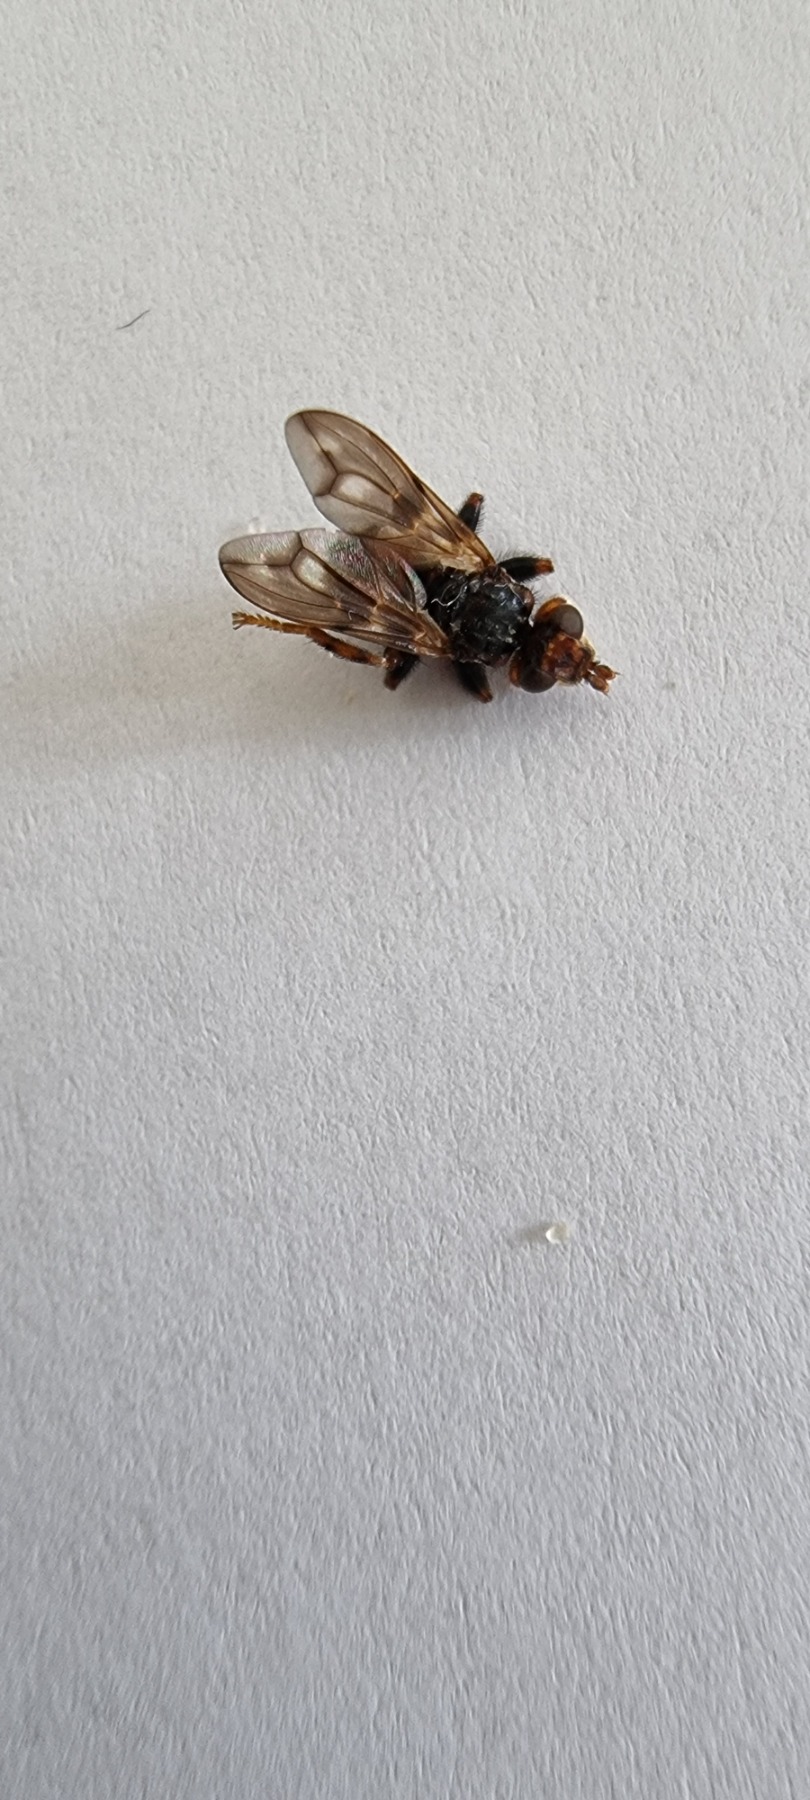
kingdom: Animalia
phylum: Arthropoda
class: Insecta
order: Diptera
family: Conopidae
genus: Myopa
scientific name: Myopa buccata
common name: Brun hvepseflue
